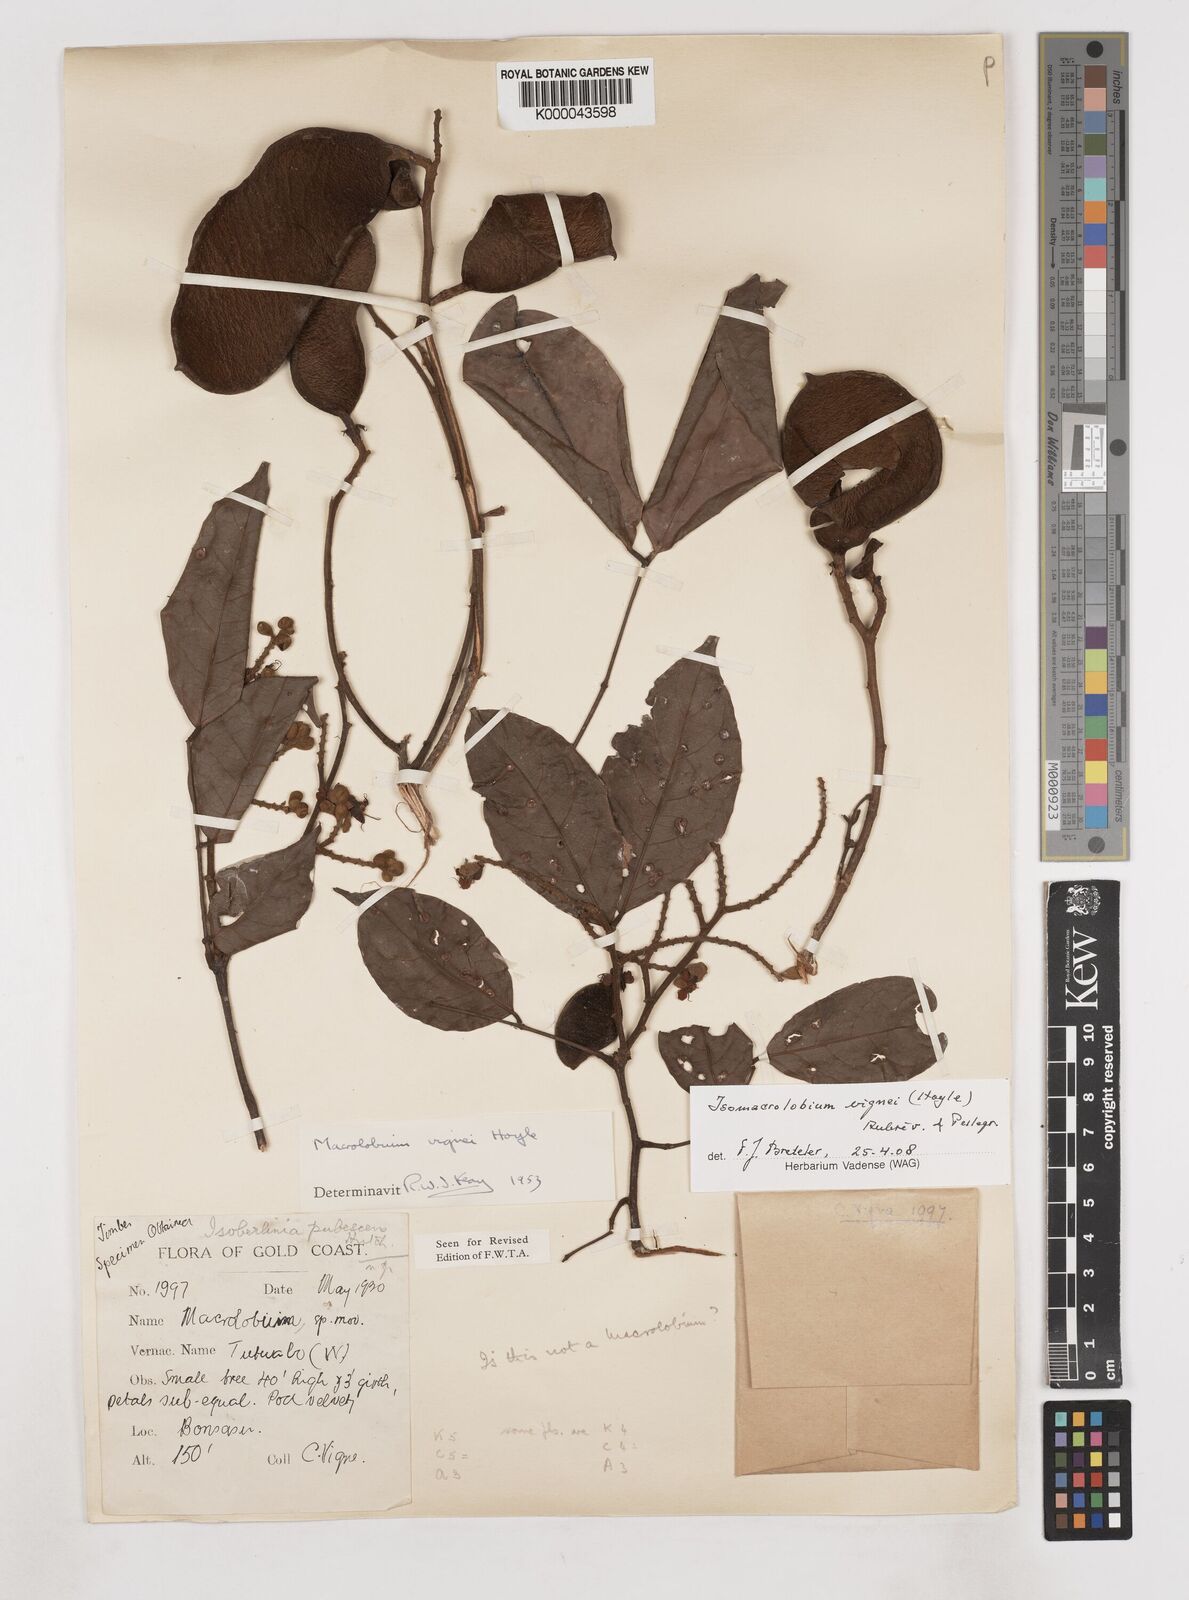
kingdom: Plantae
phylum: Tracheophyta
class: Magnoliopsida
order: Fabales
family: Fabaceae
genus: Englerodendron
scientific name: Englerodendron vignei
